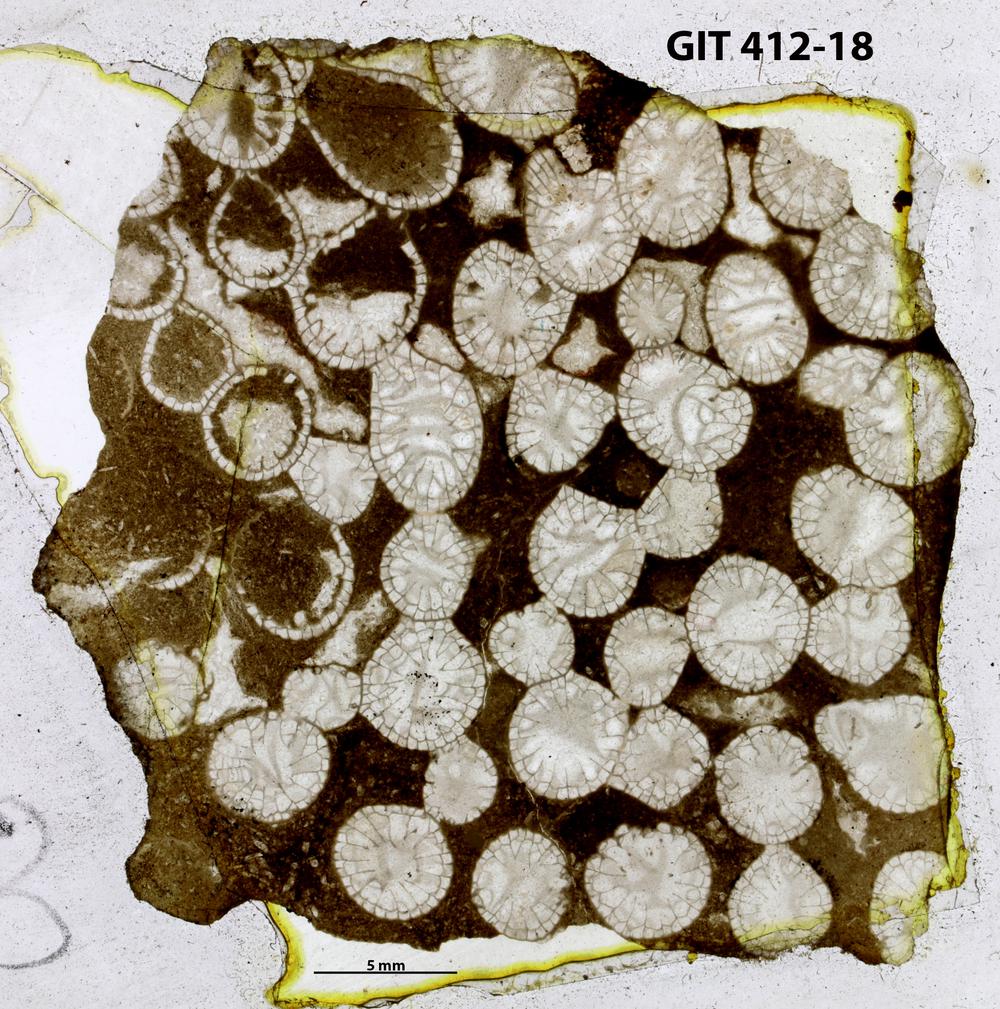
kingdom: Animalia
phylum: Cnidaria
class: Anthozoa
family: Entelophyllidae
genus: Entelophyllum
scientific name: Entelophyllum
